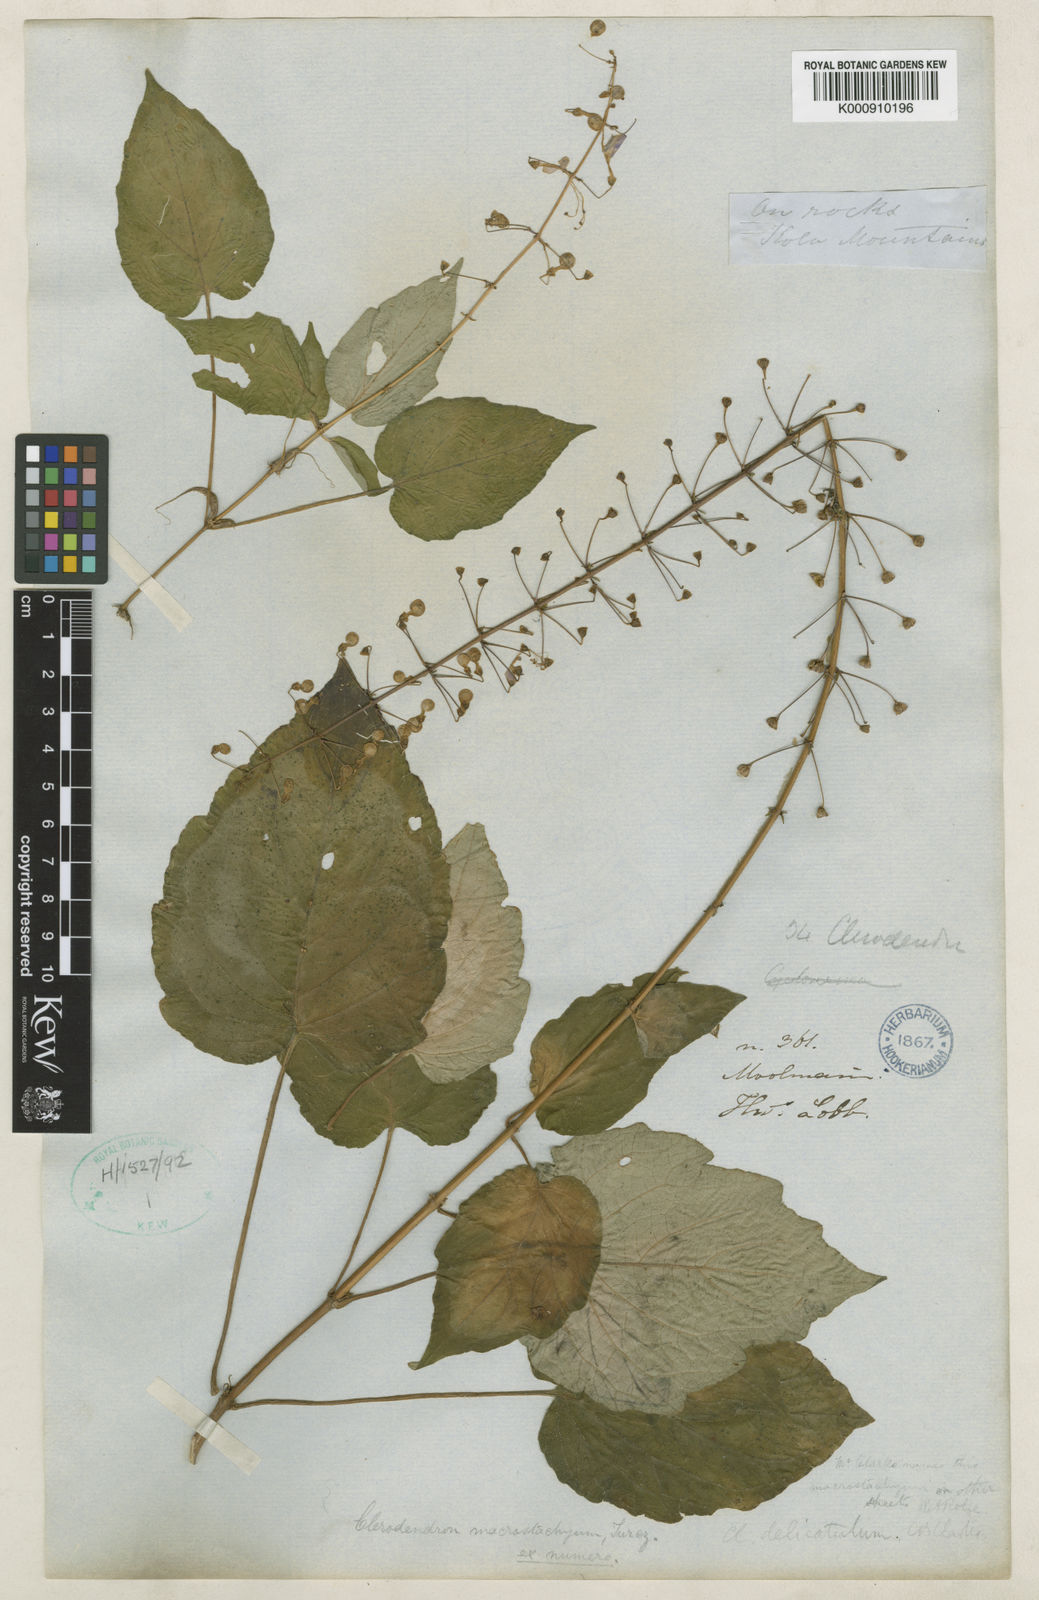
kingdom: Plantae
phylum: Tracheophyta
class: Magnoliopsida
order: Lamiales
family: Lamiaceae
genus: Rotheca
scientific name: Rotheca macrostachya
